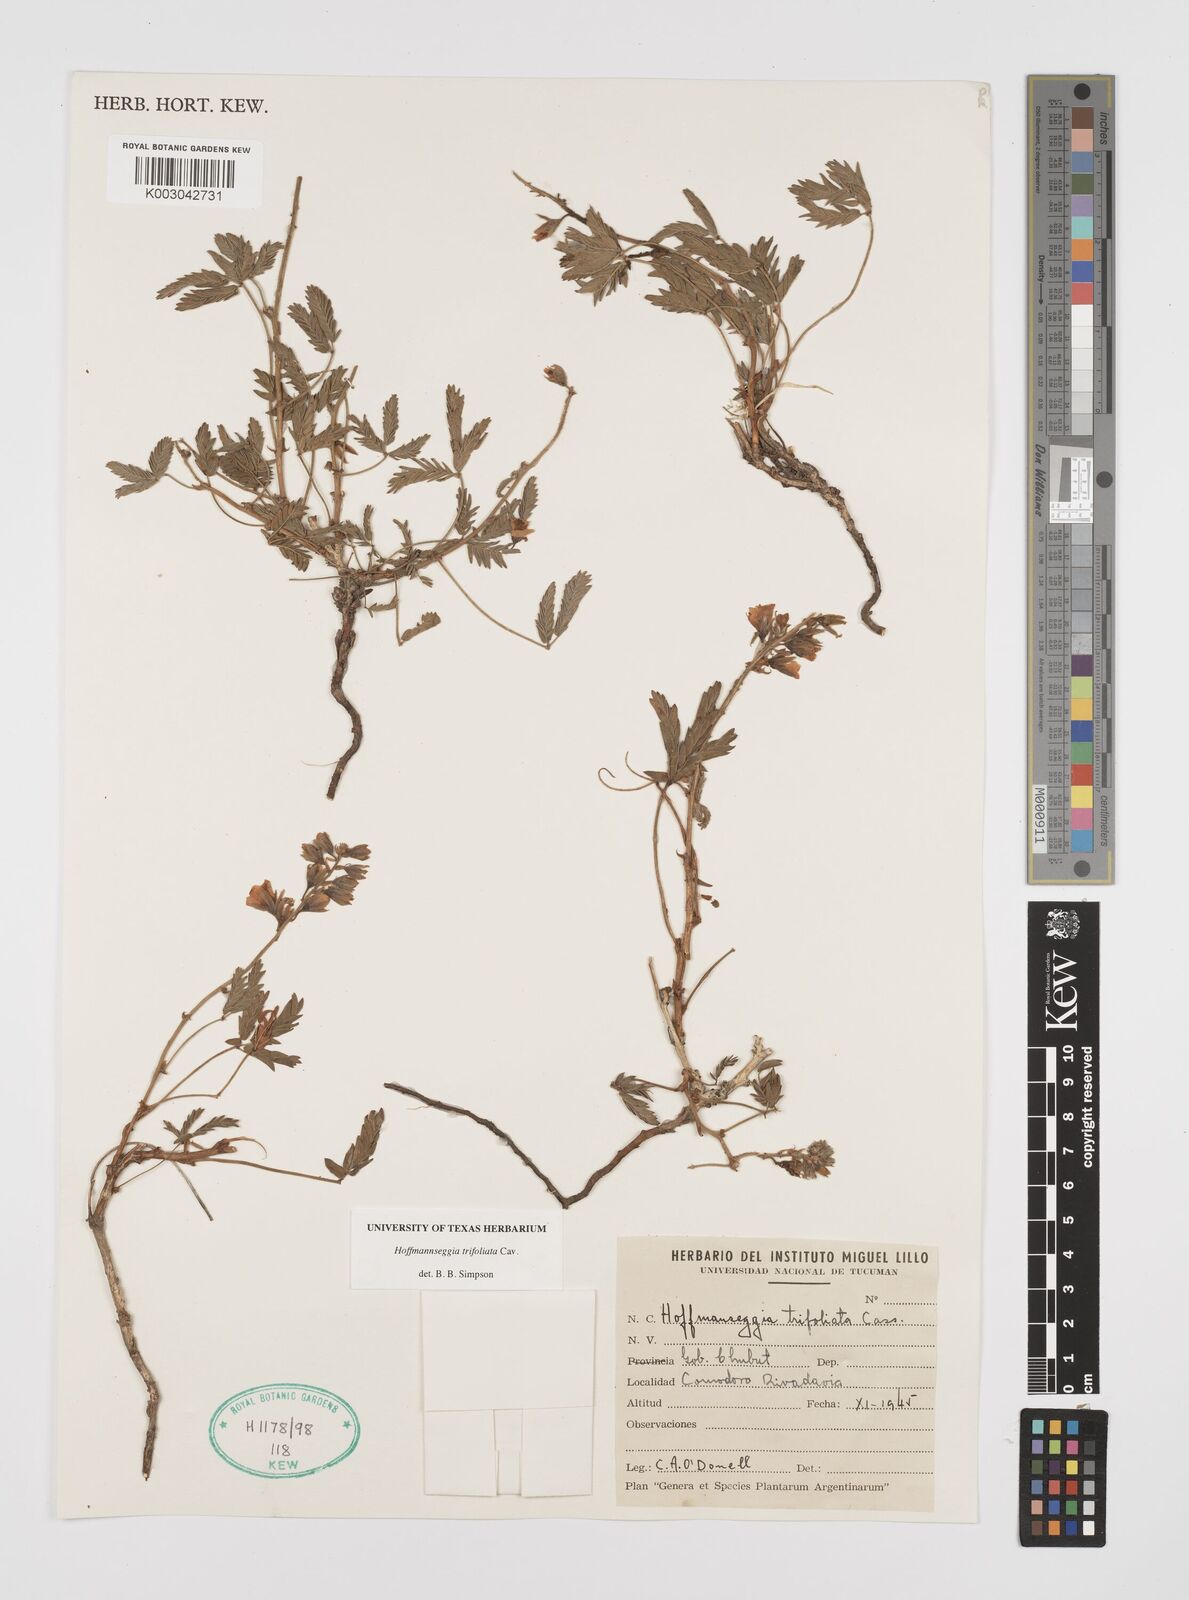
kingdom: Plantae
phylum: Tracheophyta
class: Magnoliopsida
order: Fabales
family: Fabaceae
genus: Hoffmannseggia
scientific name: Hoffmannseggia trifoliata
